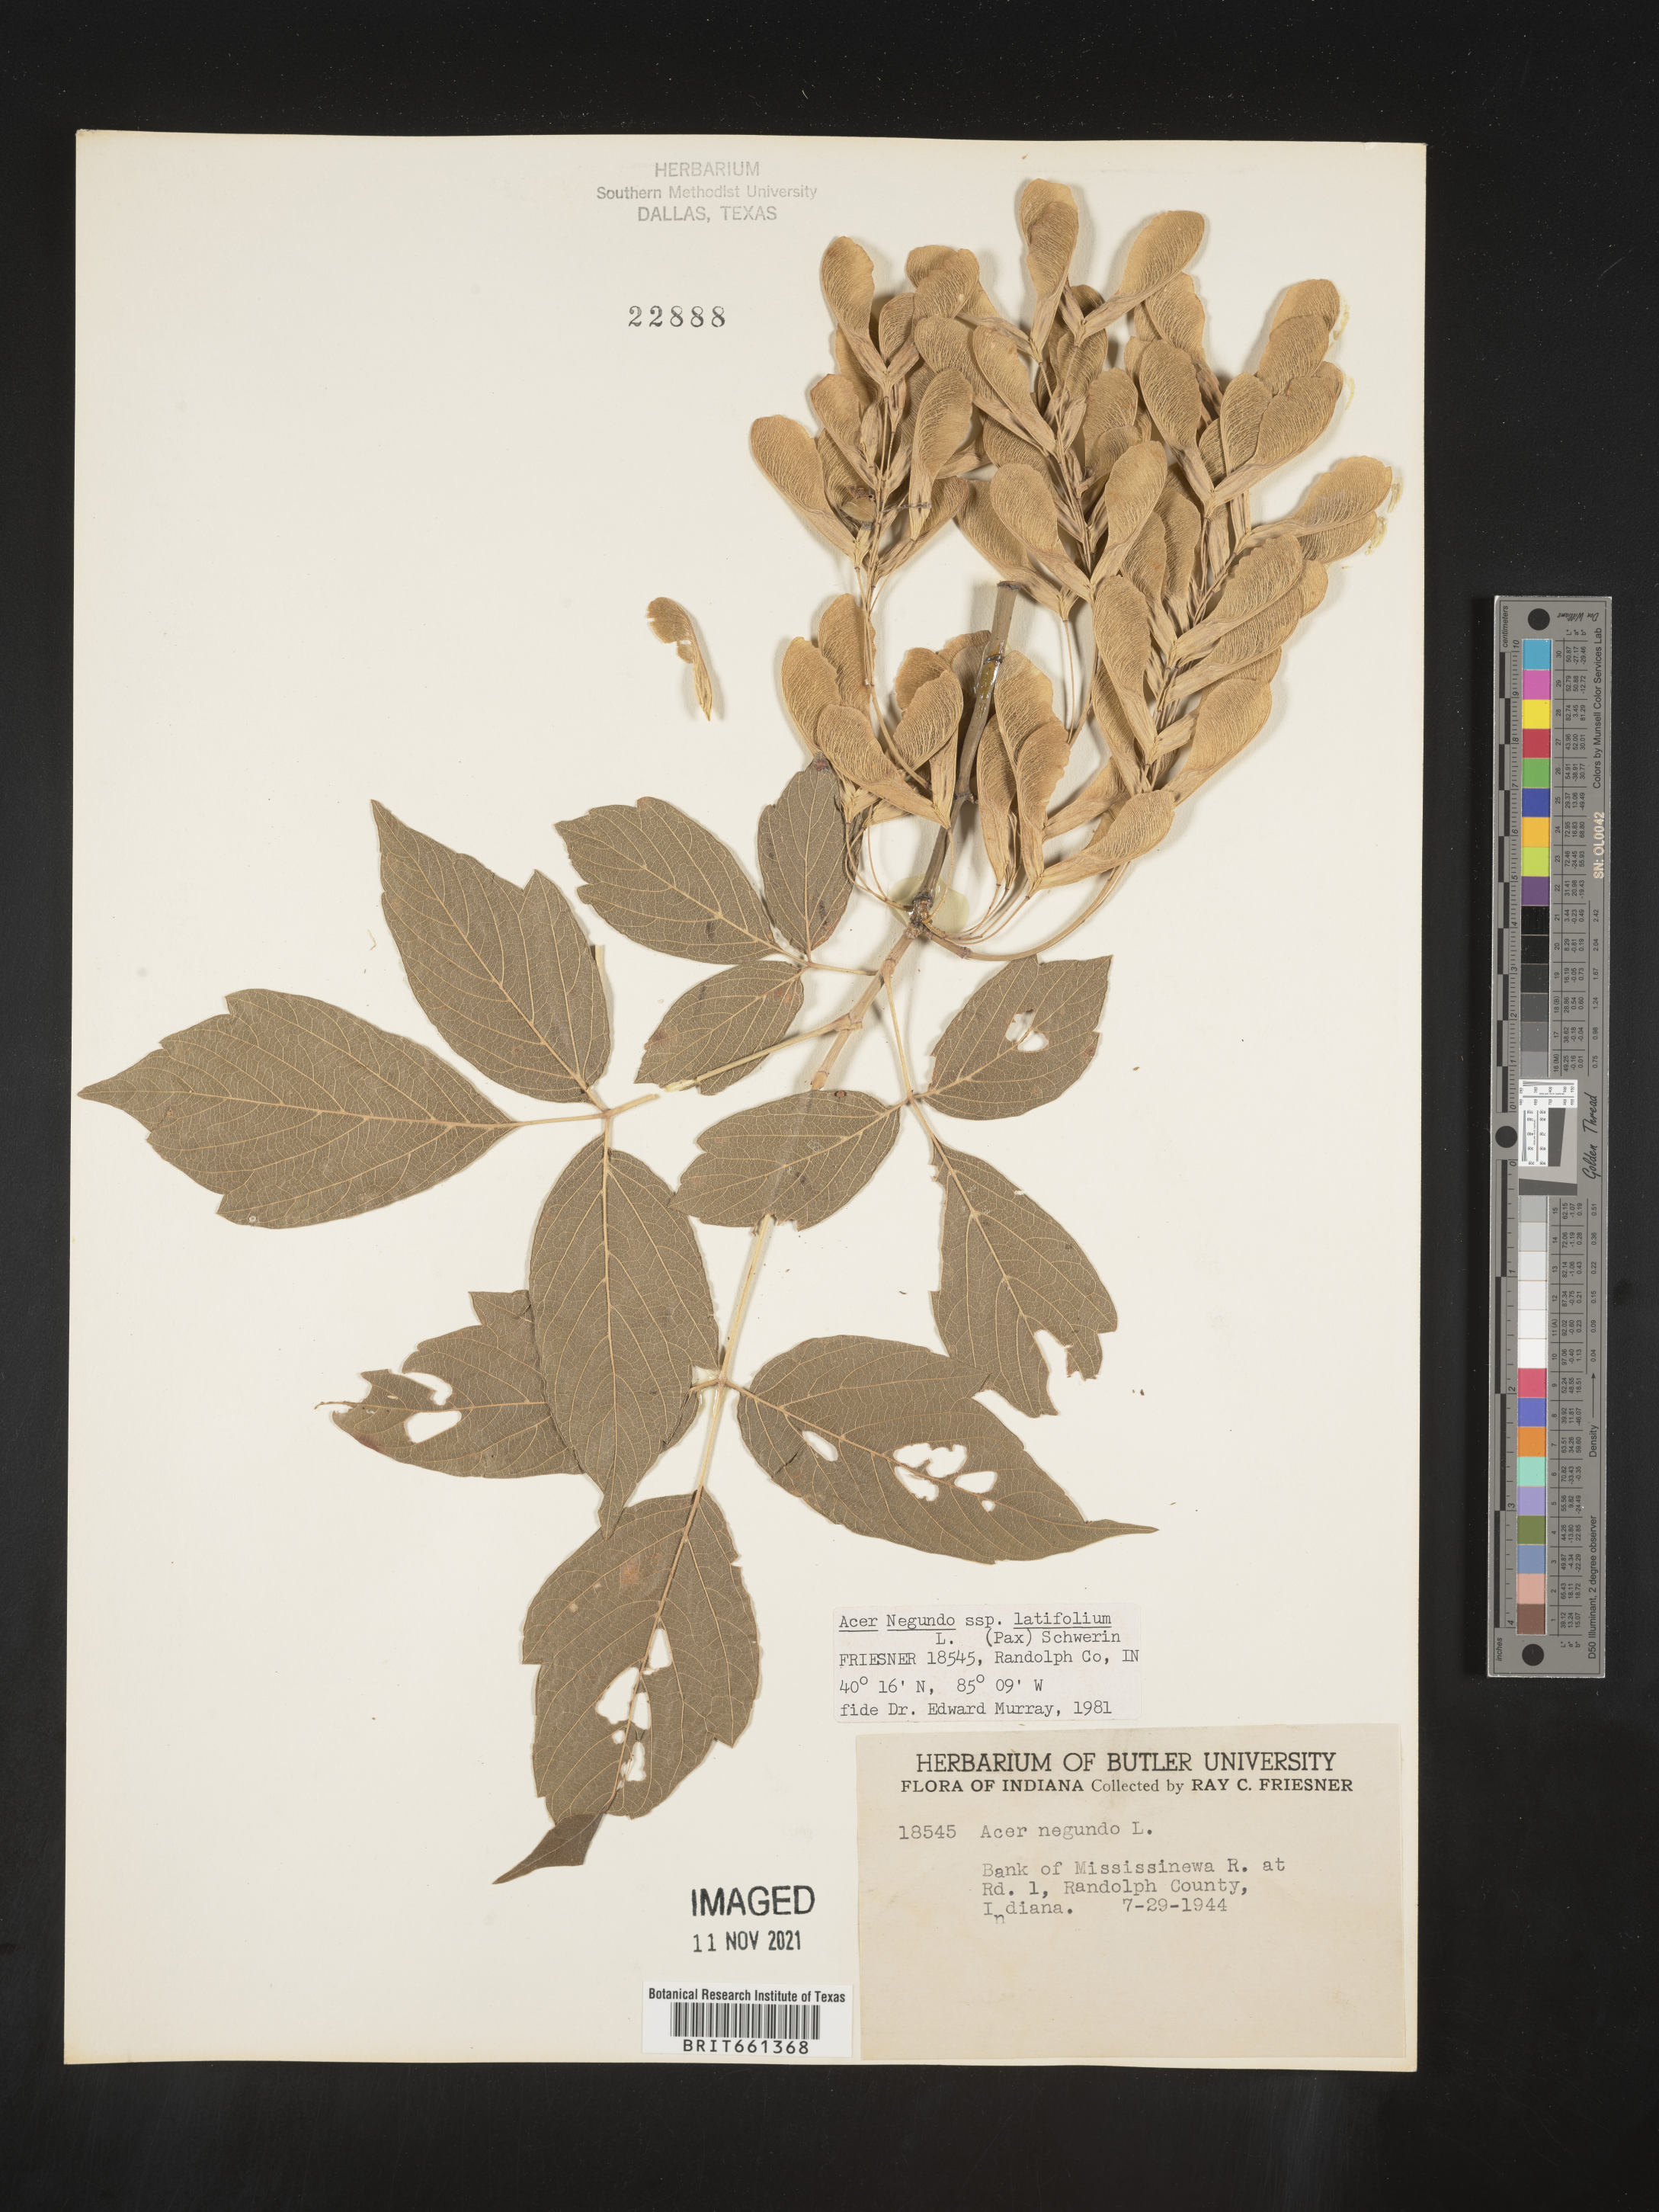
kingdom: Plantae
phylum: Tracheophyta
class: Magnoliopsida
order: Sapindales
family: Sapindaceae
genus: Acer
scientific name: Acer negundo
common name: Ashleaf maple
